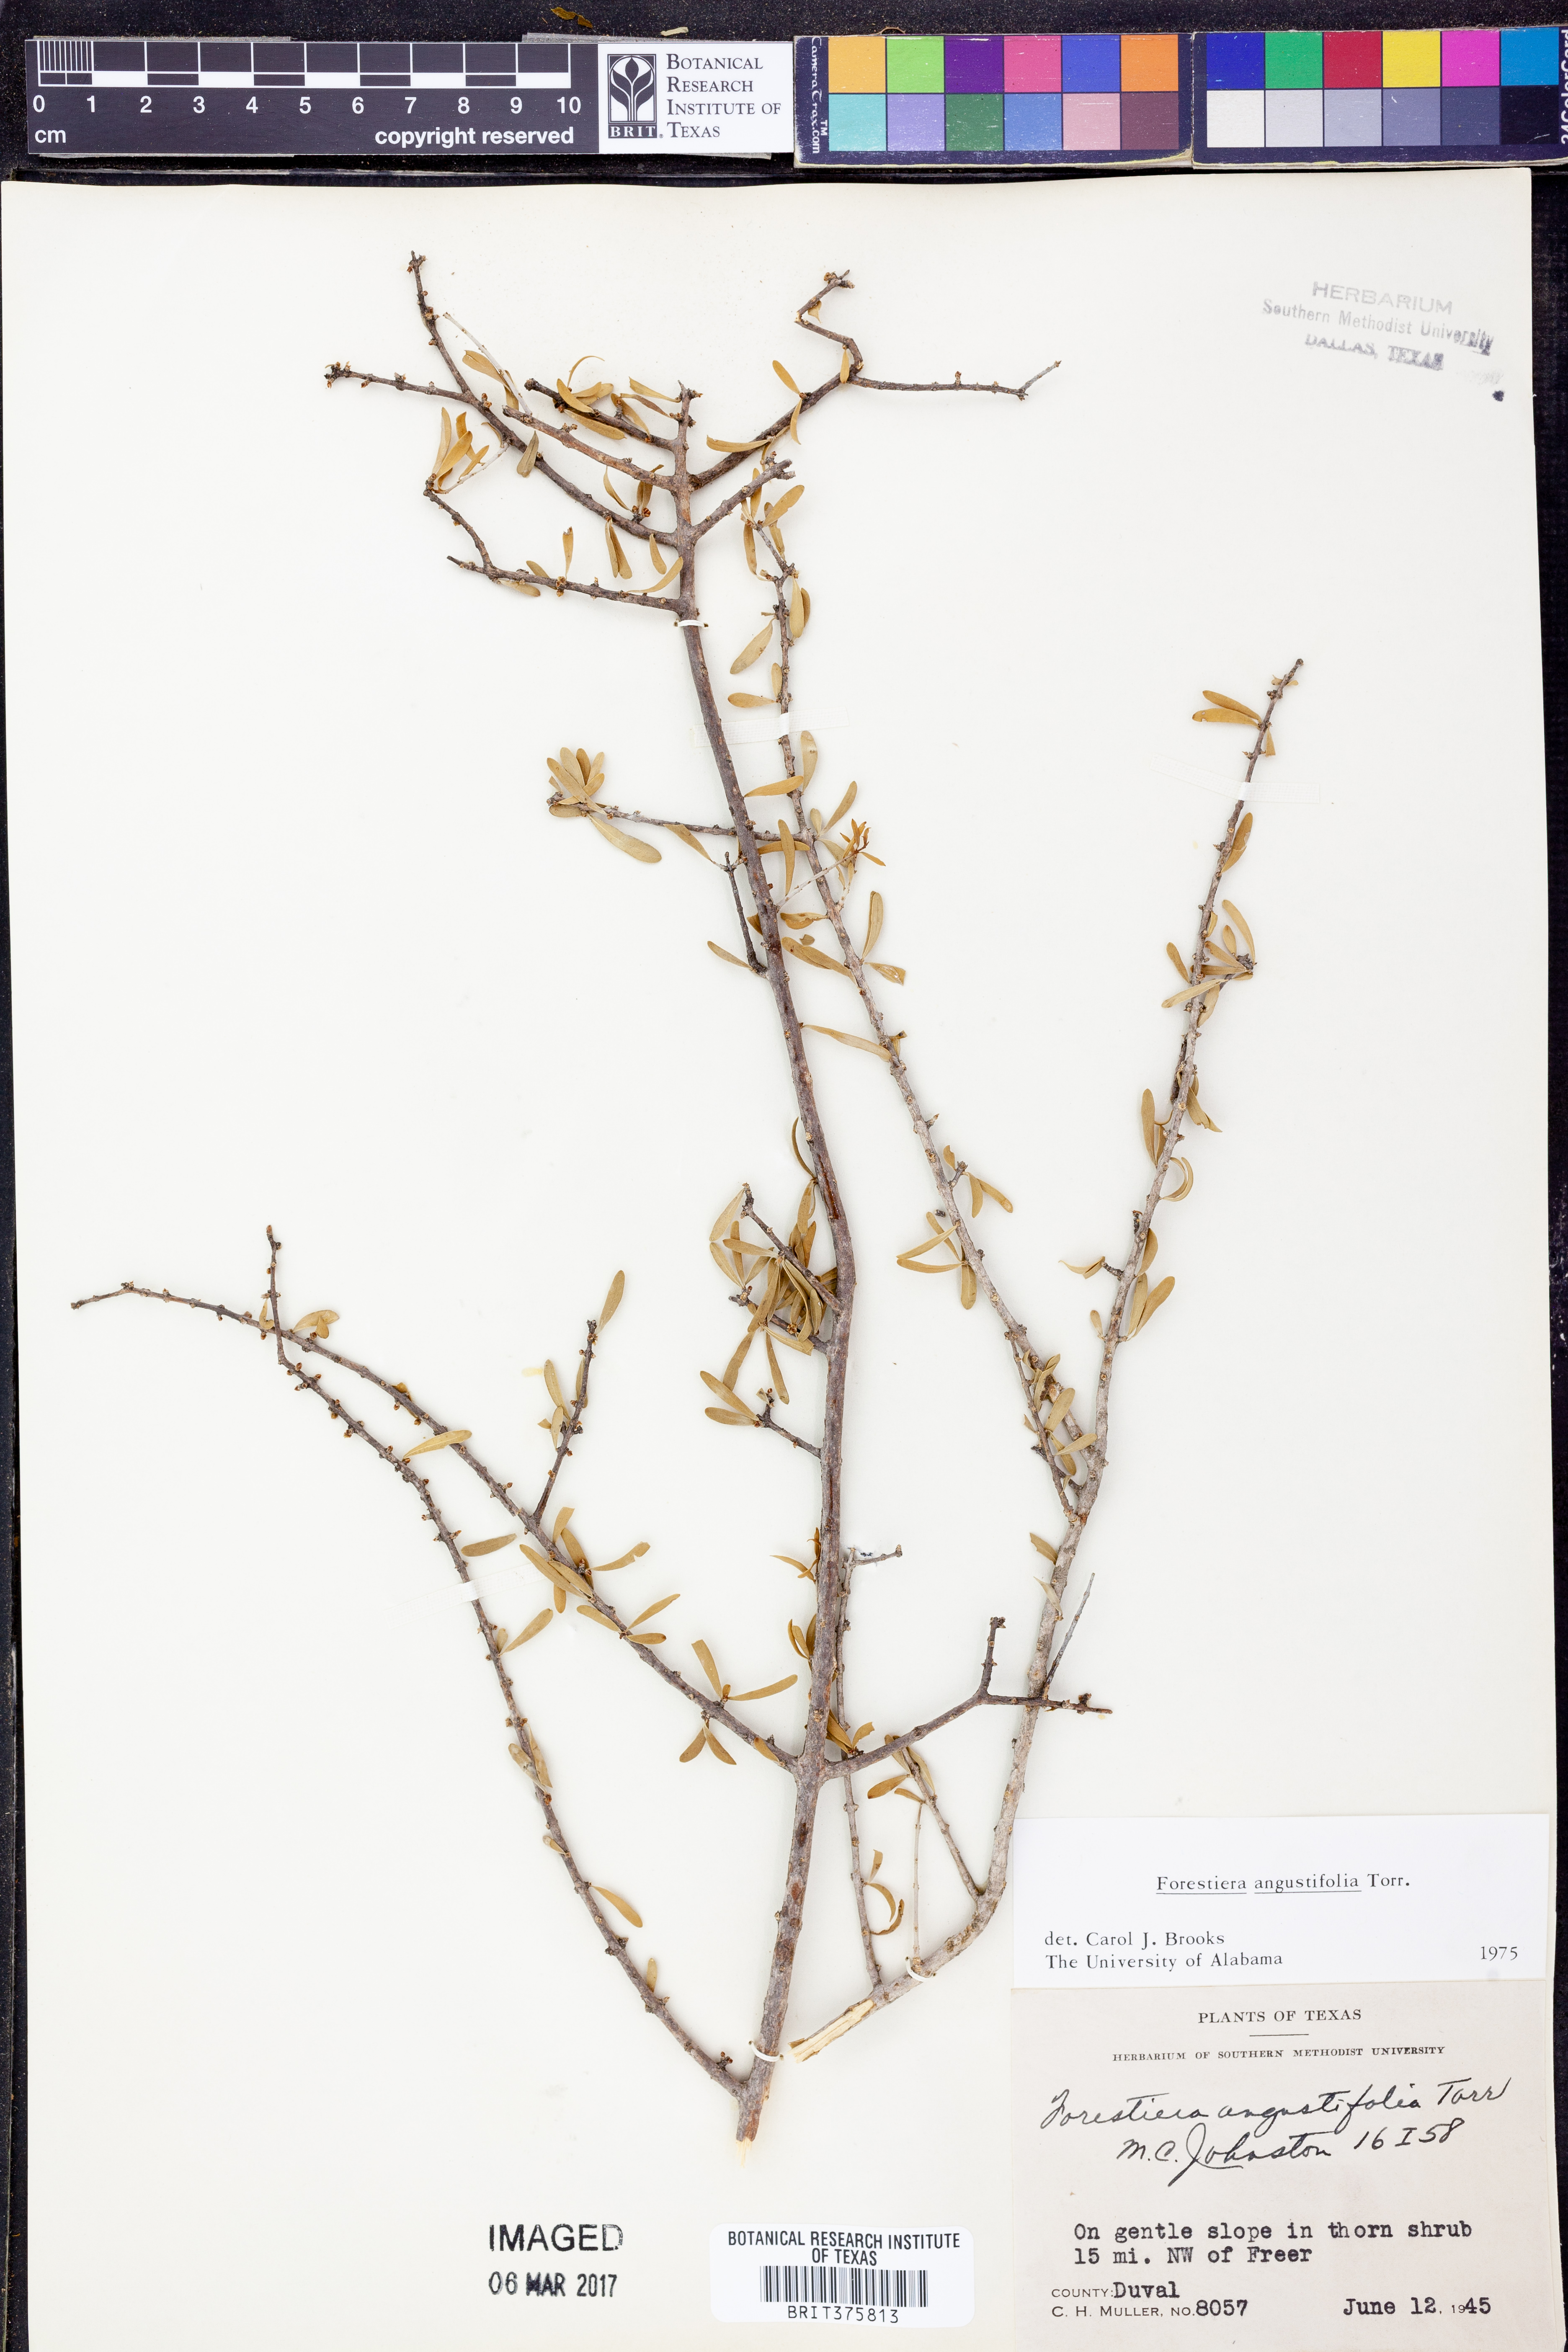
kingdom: Plantae
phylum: Tracheophyta
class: Magnoliopsida
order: Lamiales
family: Oleaceae
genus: Forestiera
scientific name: Forestiera angustifolia
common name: Elbowbush
